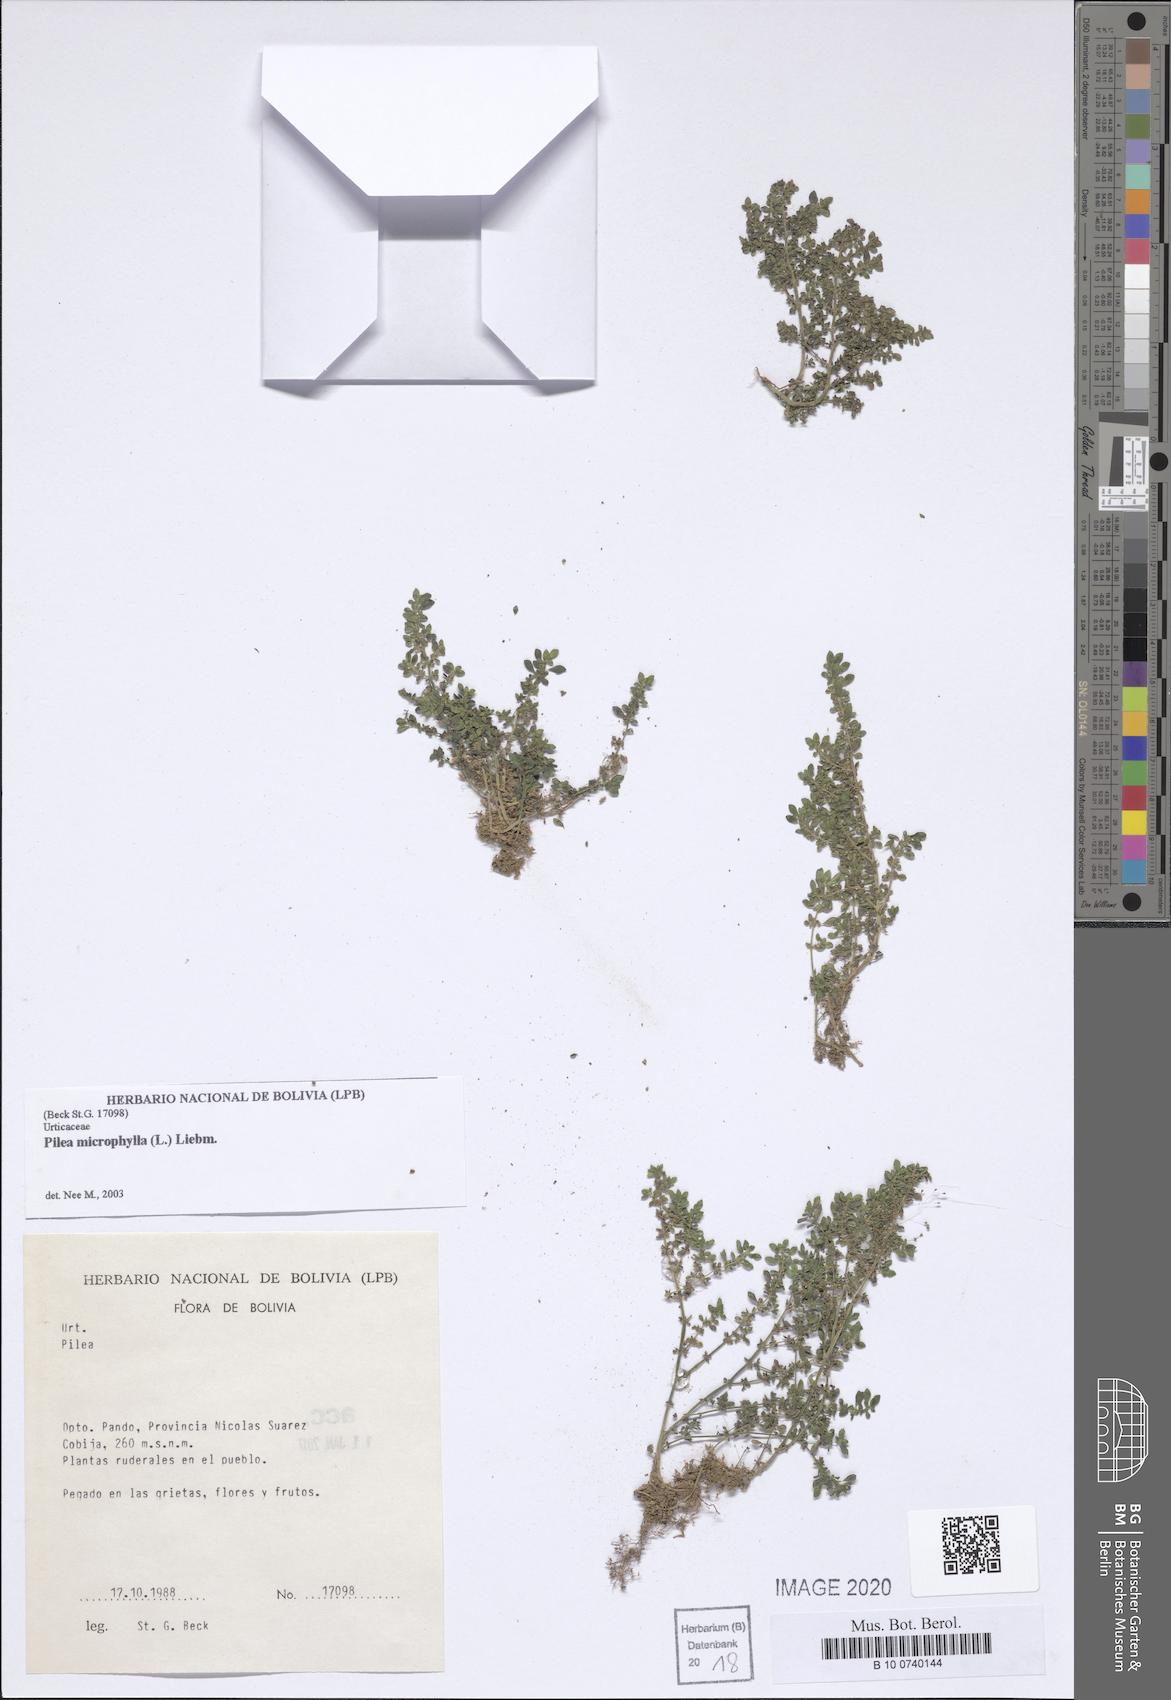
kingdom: Plantae
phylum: Tracheophyta
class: Magnoliopsida
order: Rosales
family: Urticaceae
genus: Pilea
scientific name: Pilea microphylla
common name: Artillery-plant
